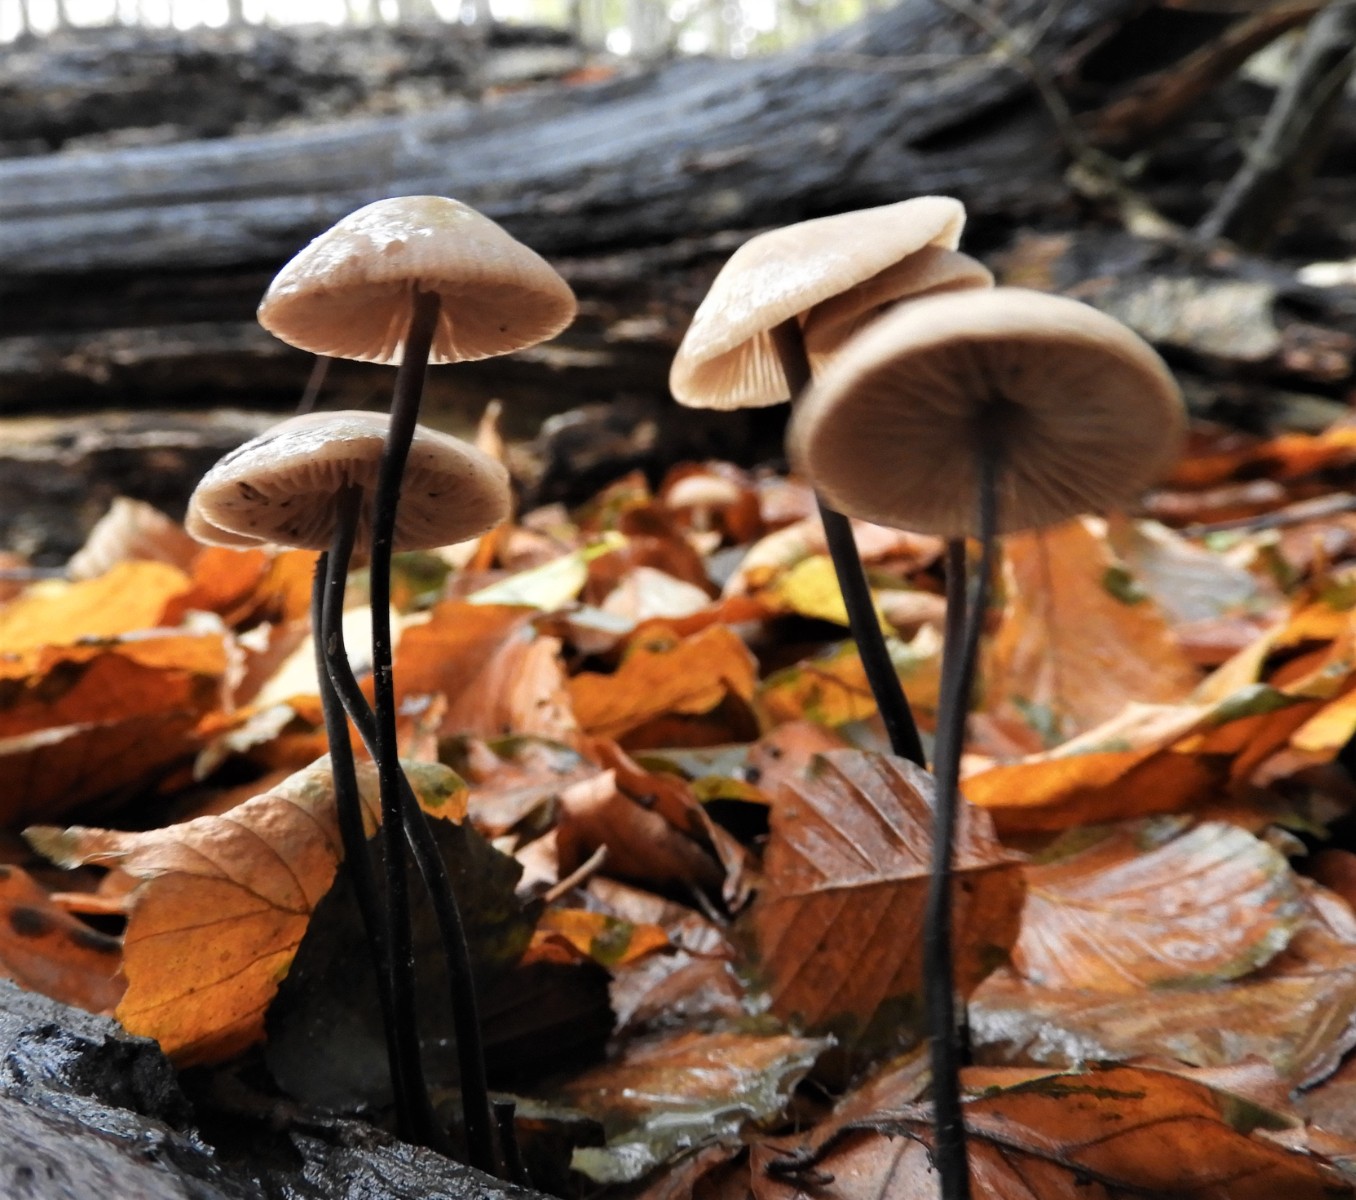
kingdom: Fungi
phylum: Basidiomycota
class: Agaricomycetes
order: Agaricales
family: Omphalotaceae
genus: Mycetinis
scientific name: Mycetinis alliaceus
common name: stor løghat
